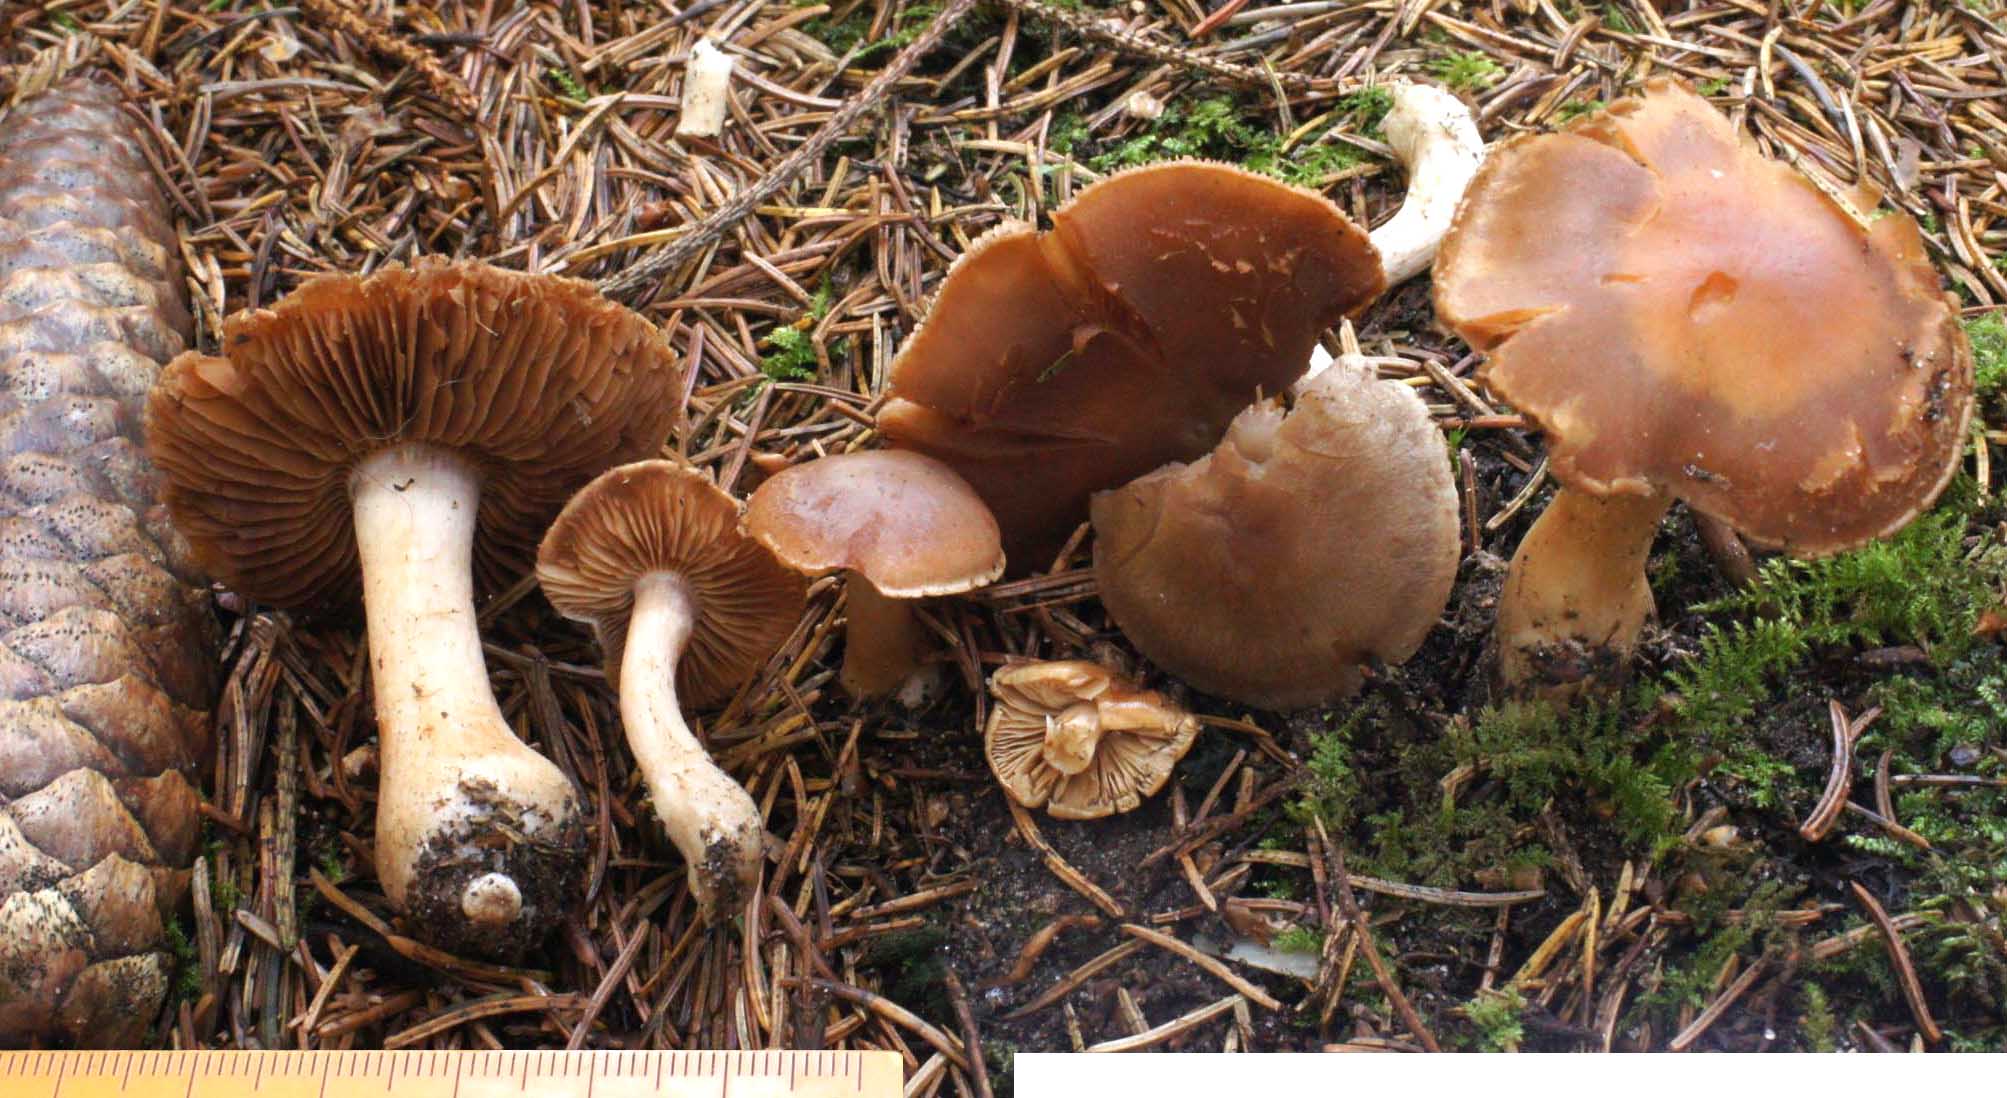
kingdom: Fungi
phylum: Basidiomycota
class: Agaricomycetes
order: Agaricales
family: Cortinariaceae
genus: Cortinarius
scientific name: Cortinarius biveloides
